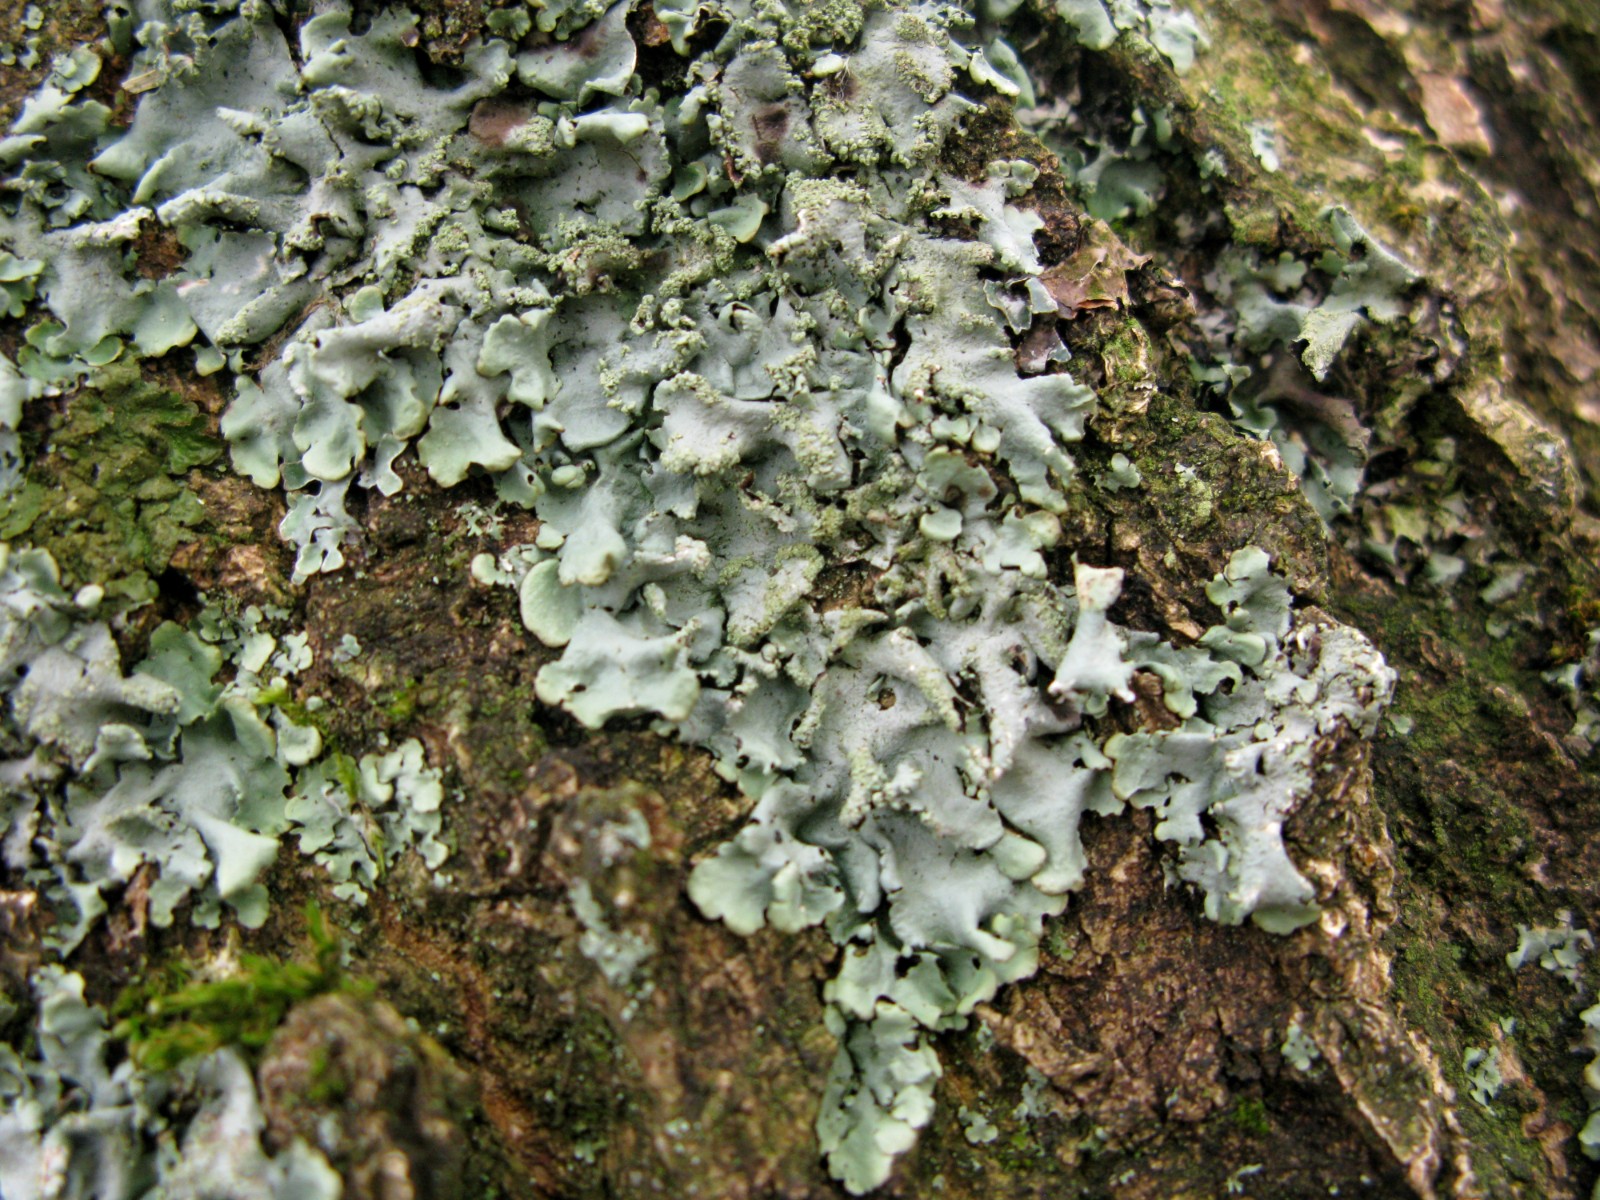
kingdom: Fungi
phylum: Ascomycota
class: Lecanoromycetes
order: Lecanorales
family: Parmeliaceae
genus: Hypotrachyna
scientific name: Hypotrachyna afrorevoluta
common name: kyst-skållav
